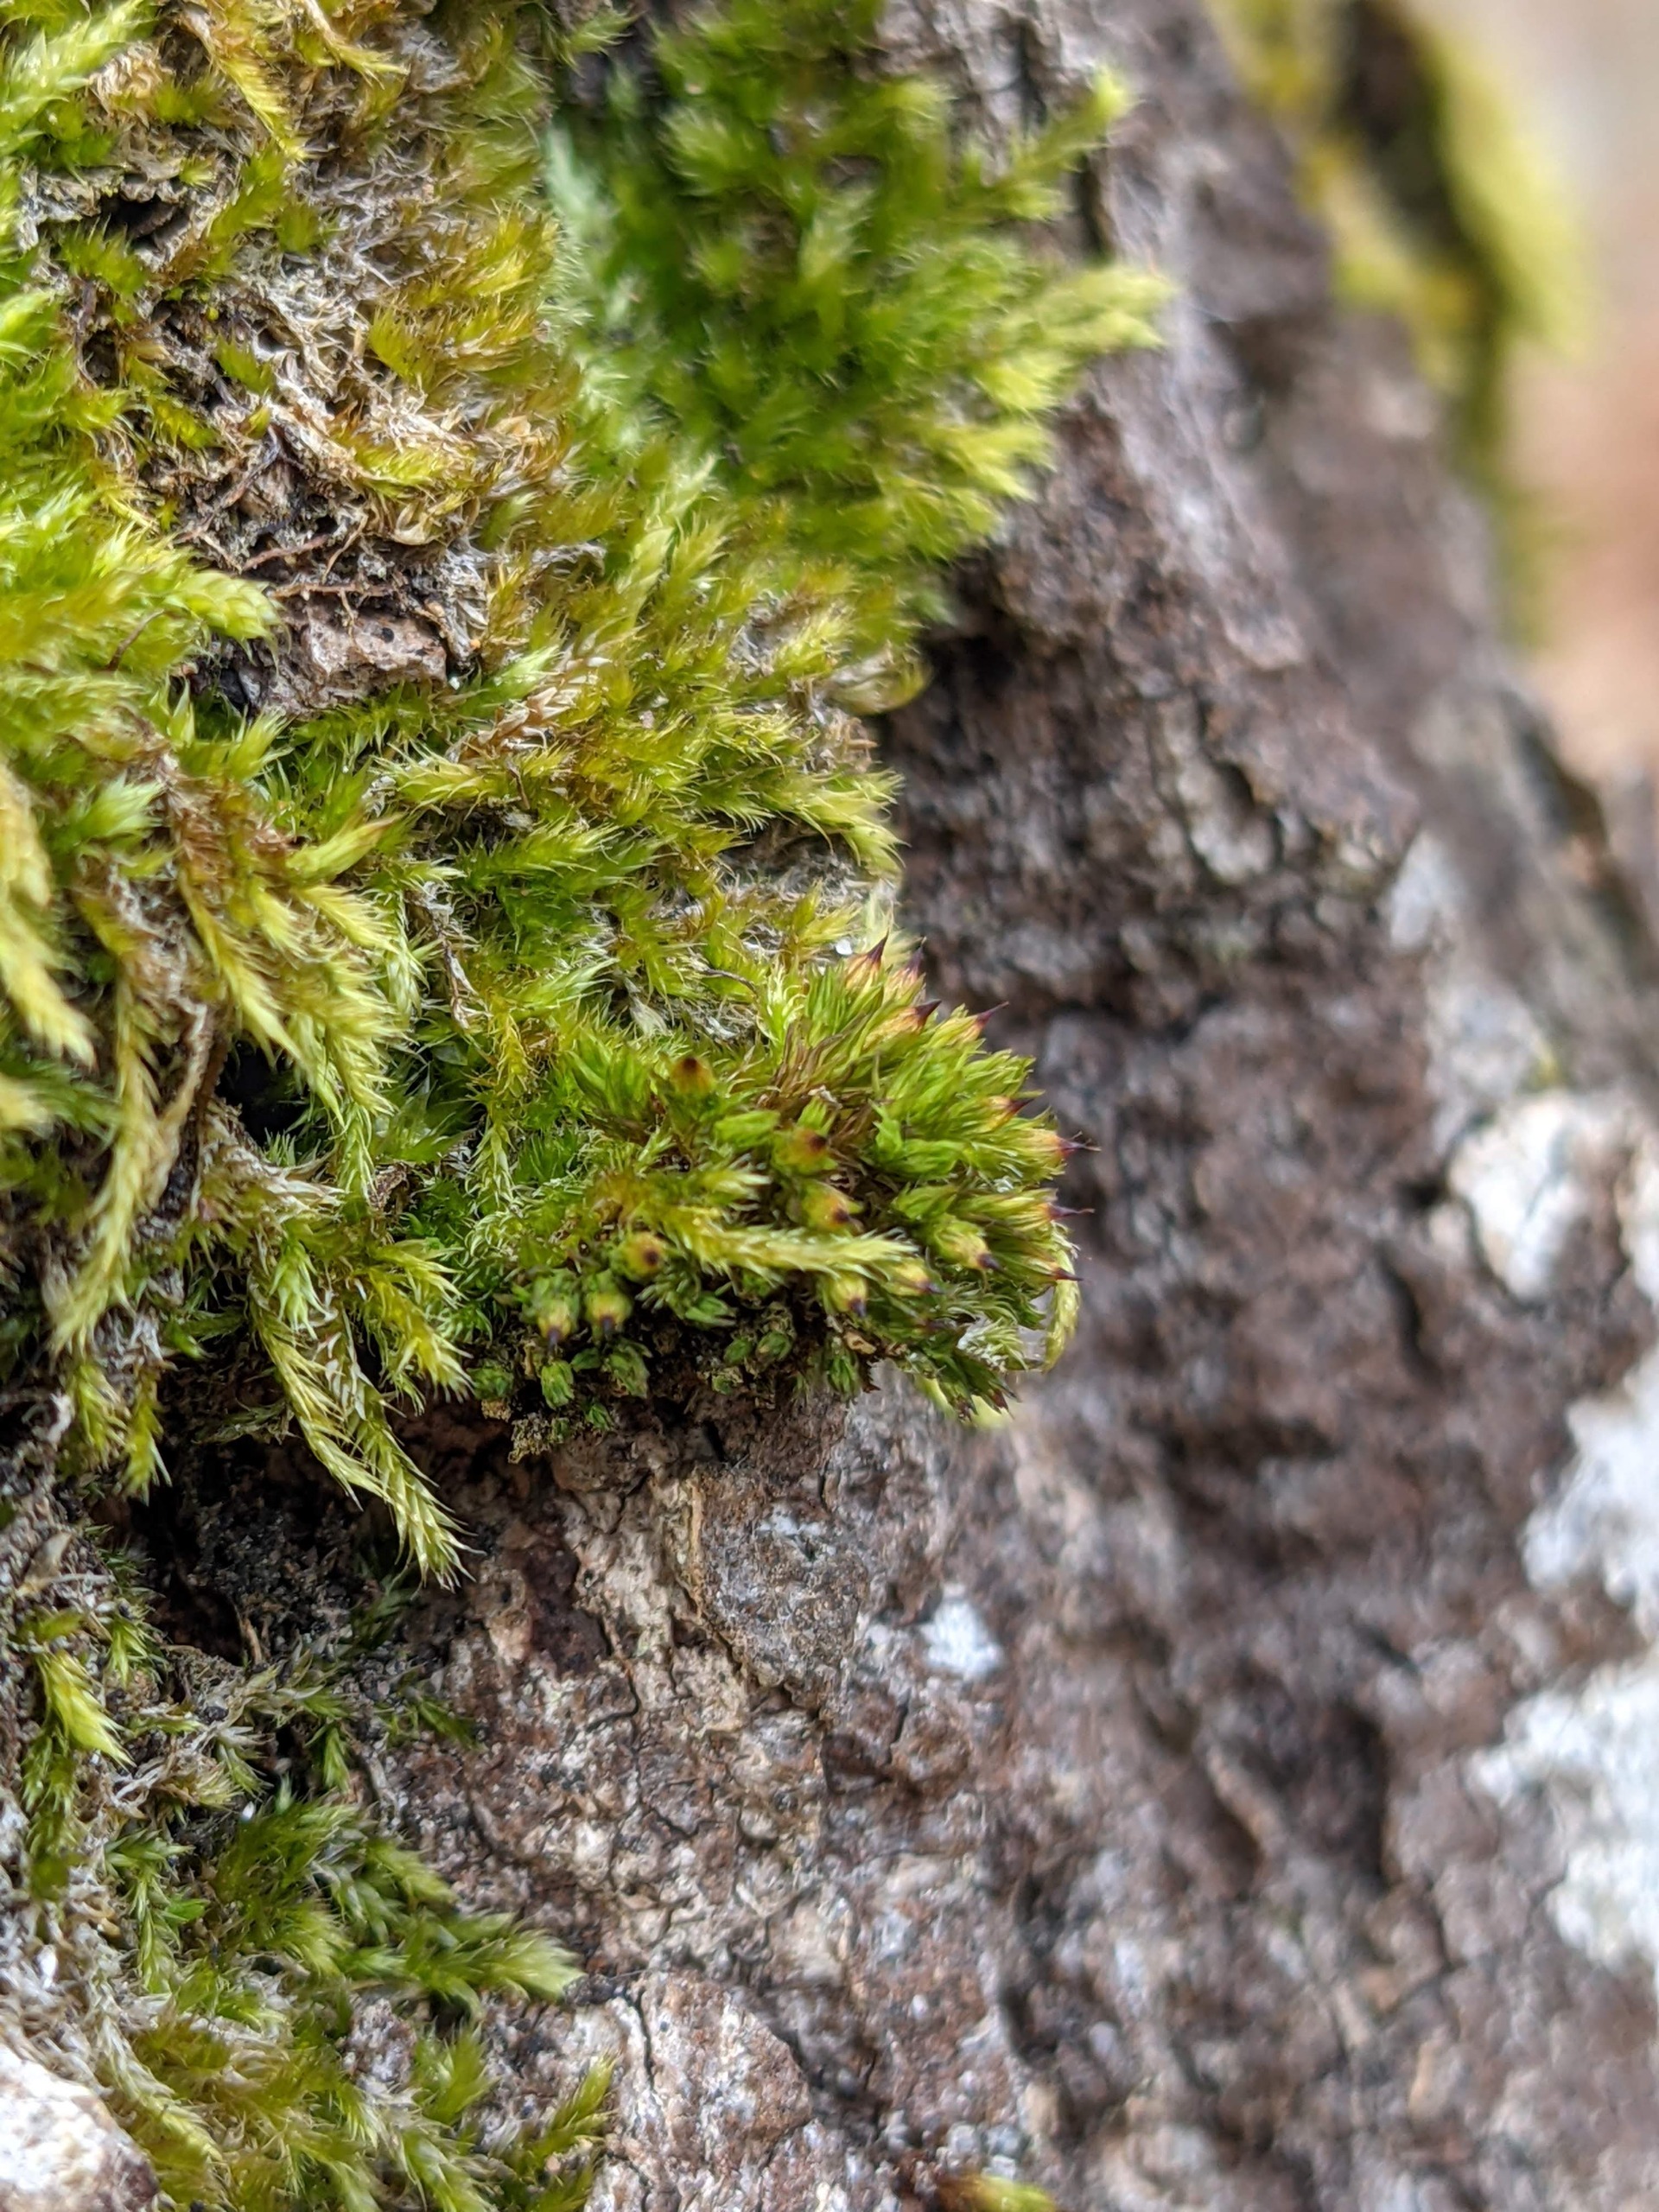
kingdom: Plantae
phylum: Bryophyta
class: Bryopsida
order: Orthotrichales
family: Orthotrichaceae
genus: Orthotrichum
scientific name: Orthotrichum stramineum
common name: Strågul furehætte
